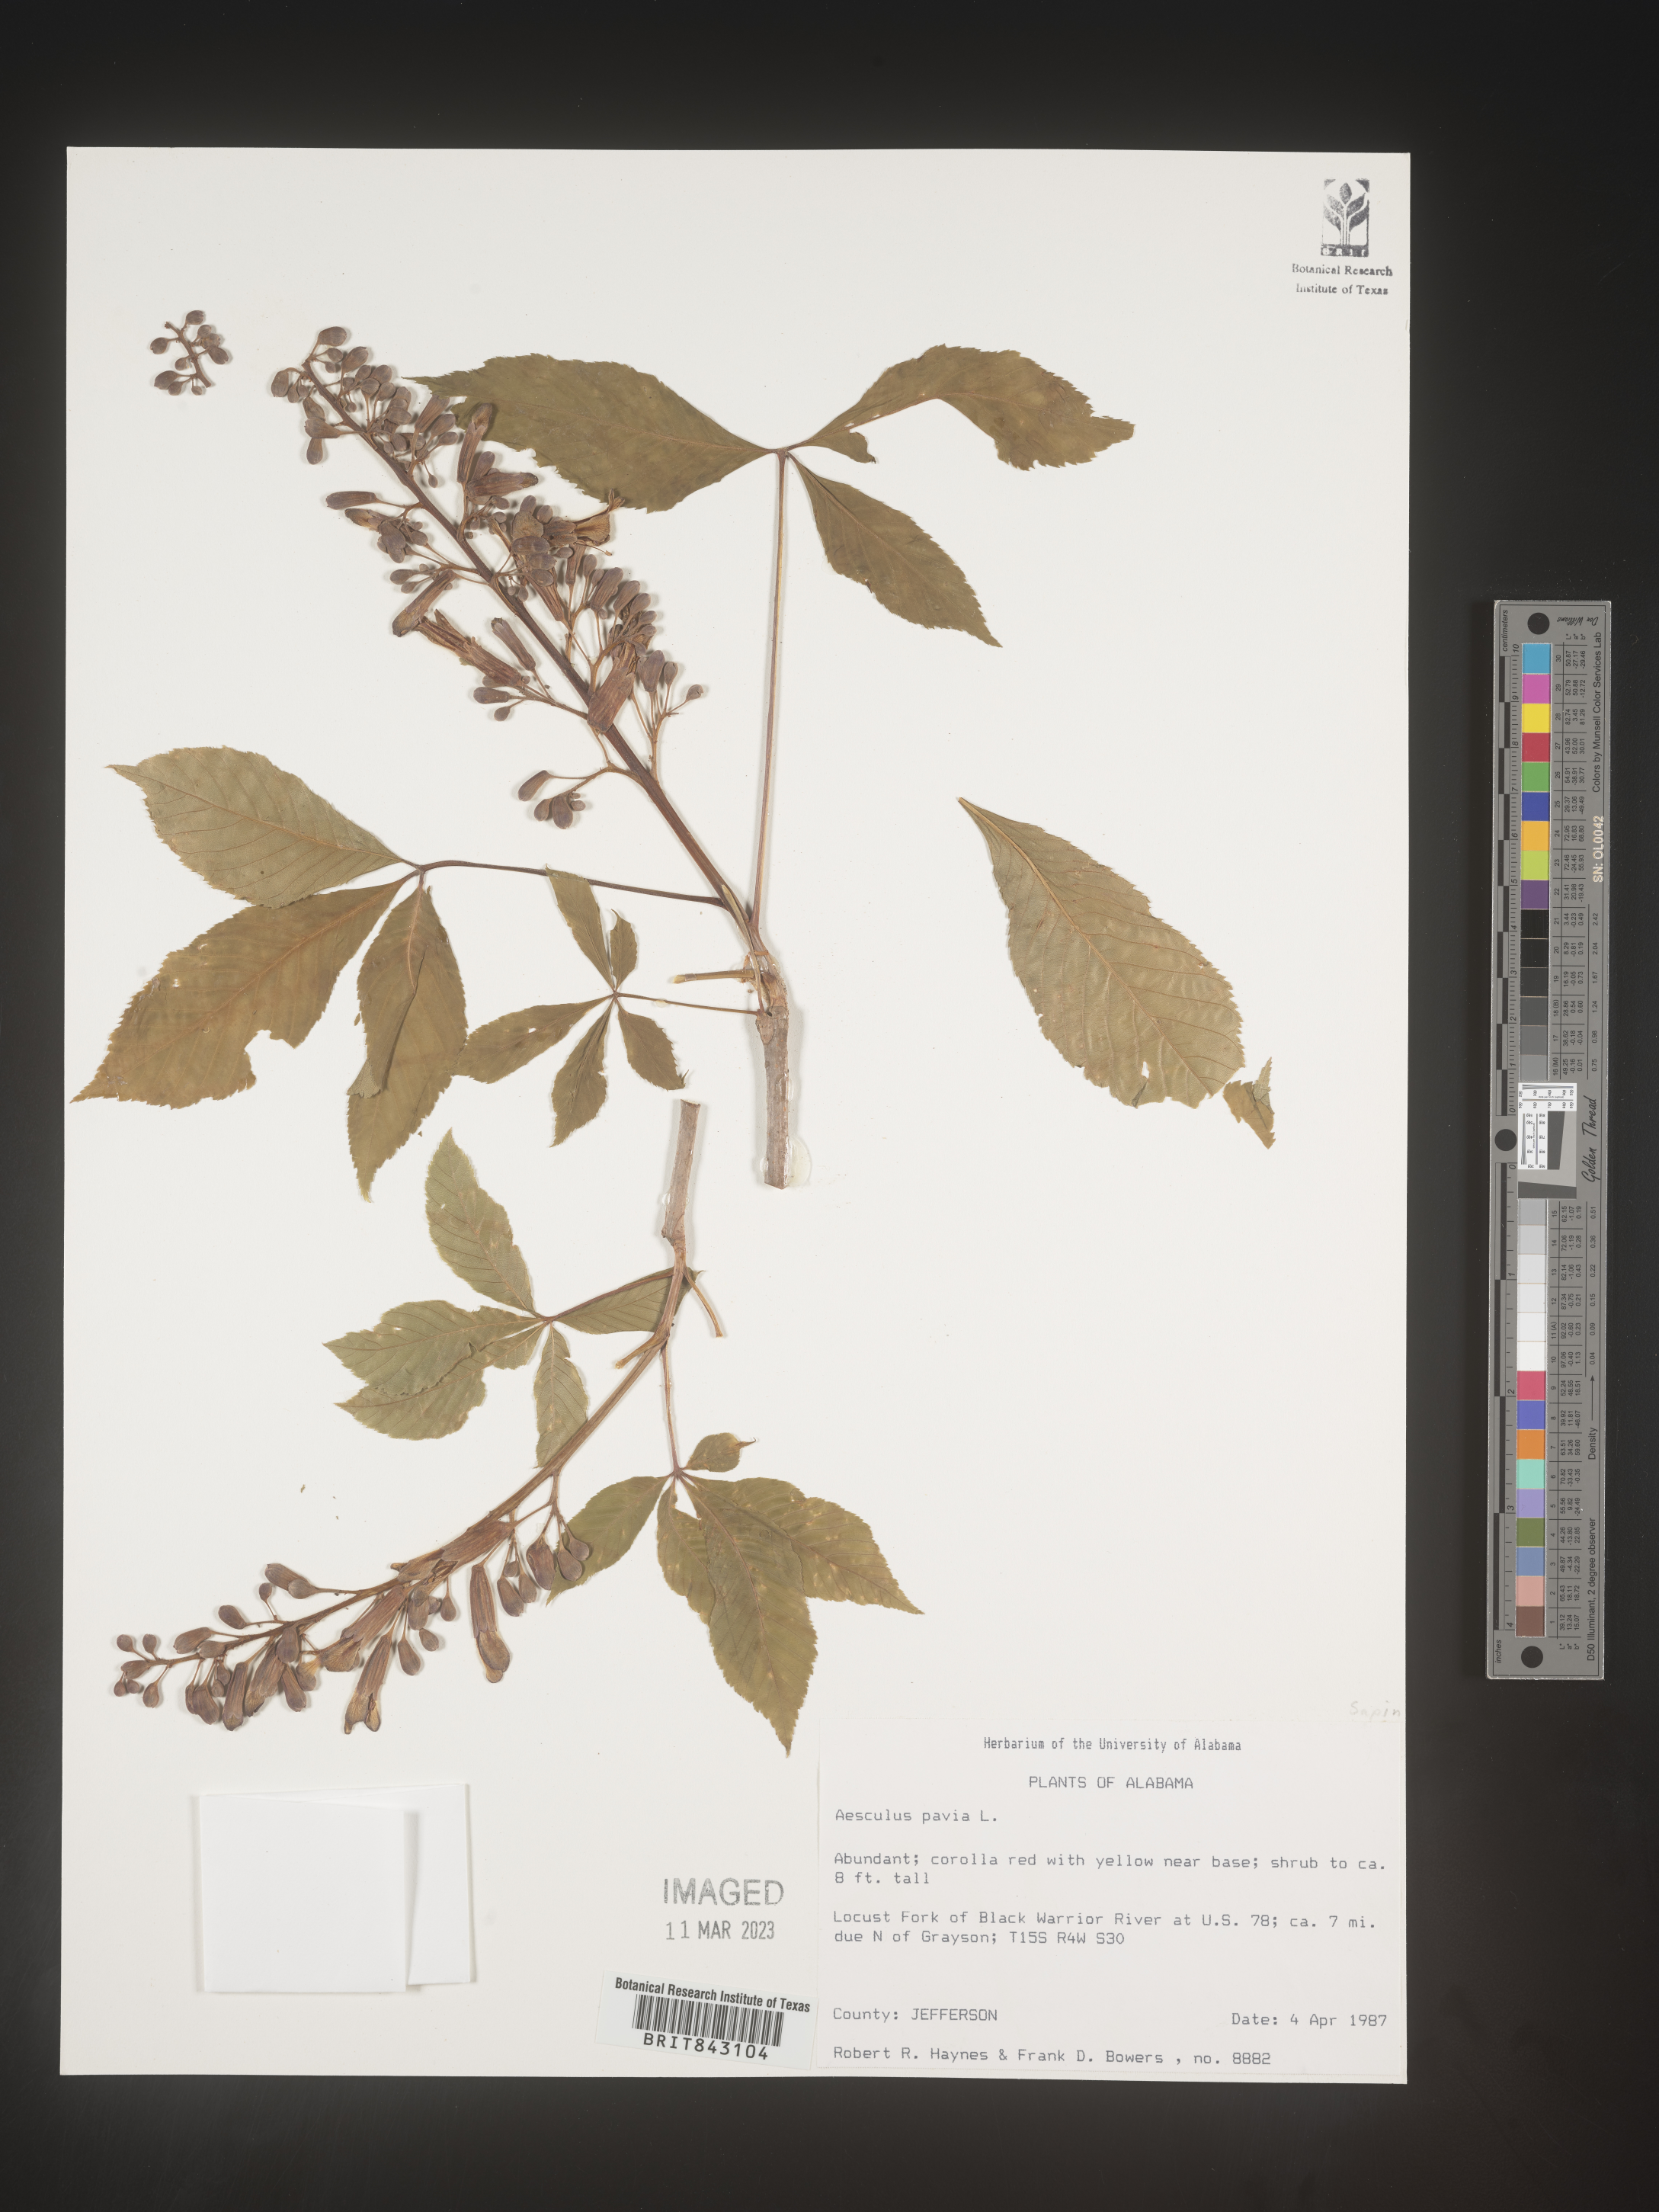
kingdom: Plantae
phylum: Tracheophyta
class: Magnoliopsida
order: Sapindales
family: Sapindaceae
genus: Aesculus
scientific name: Aesculus pavia
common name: Red buckeye
